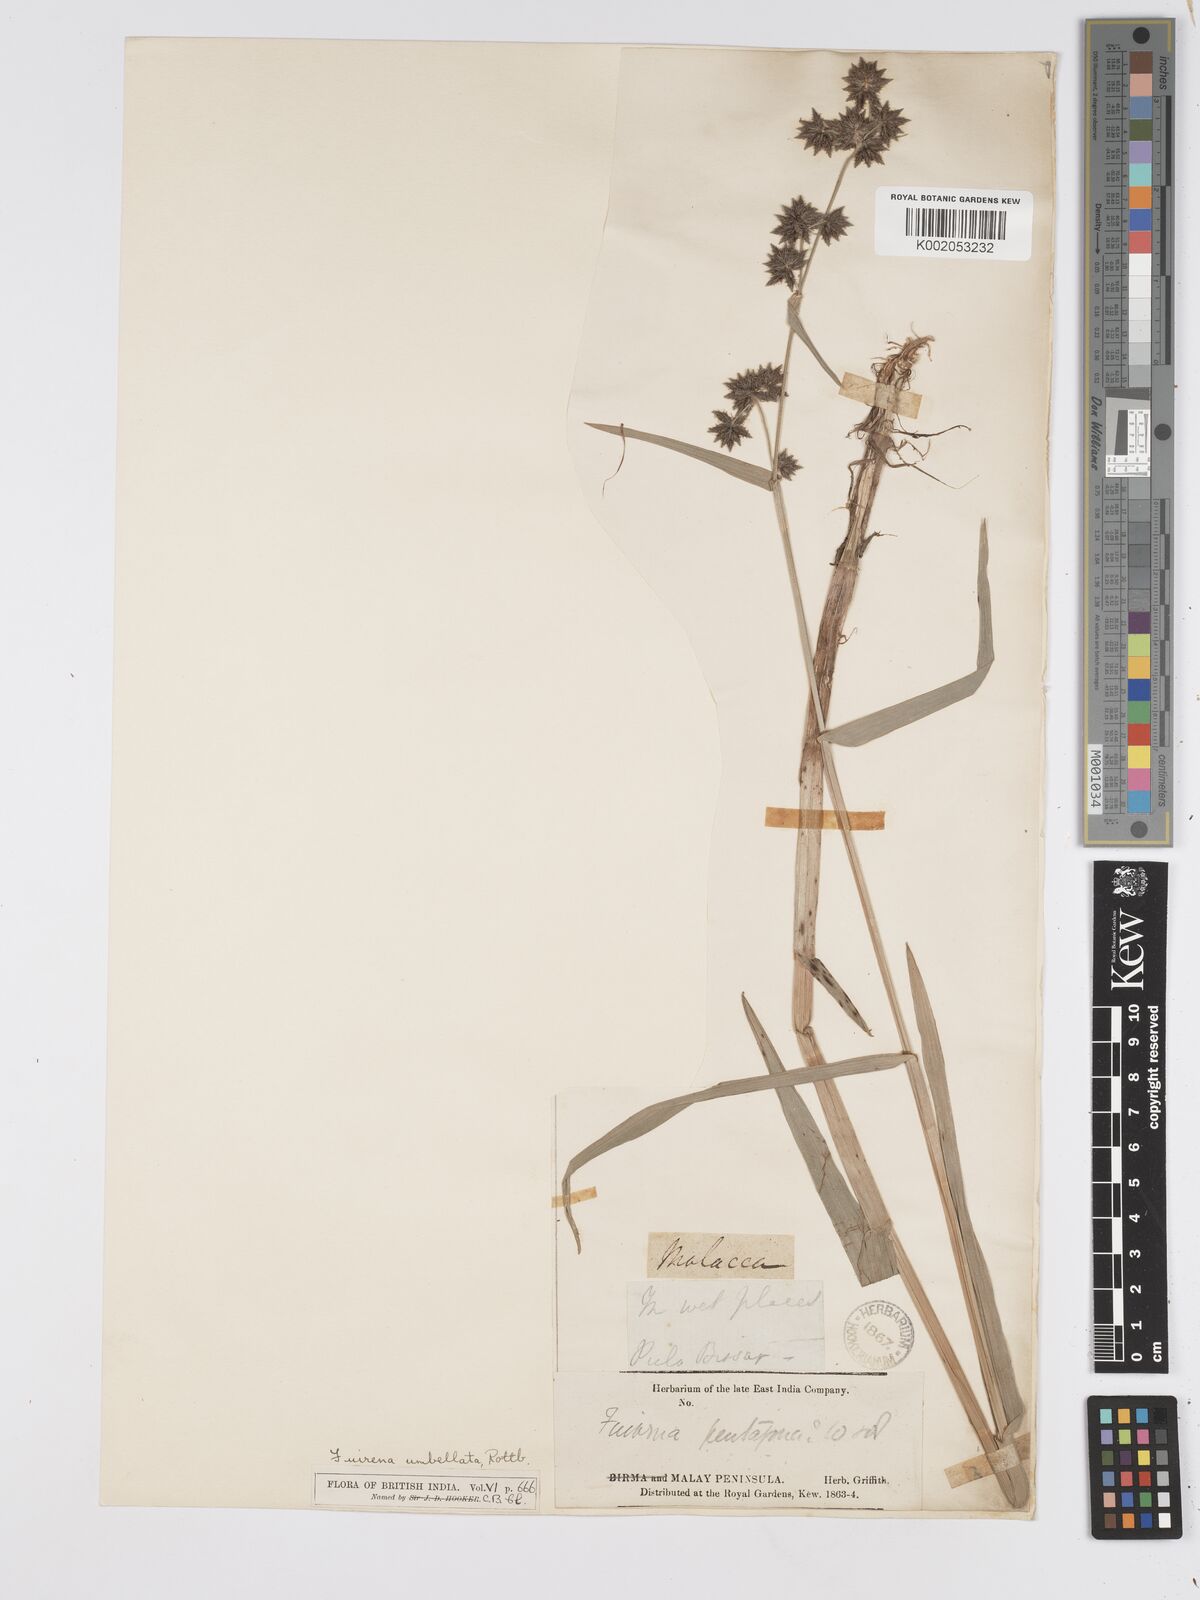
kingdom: Plantae
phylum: Tracheophyta
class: Liliopsida
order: Poales
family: Cyperaceae
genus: Fuirena
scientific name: Fuirena umbellata
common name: Yefen
